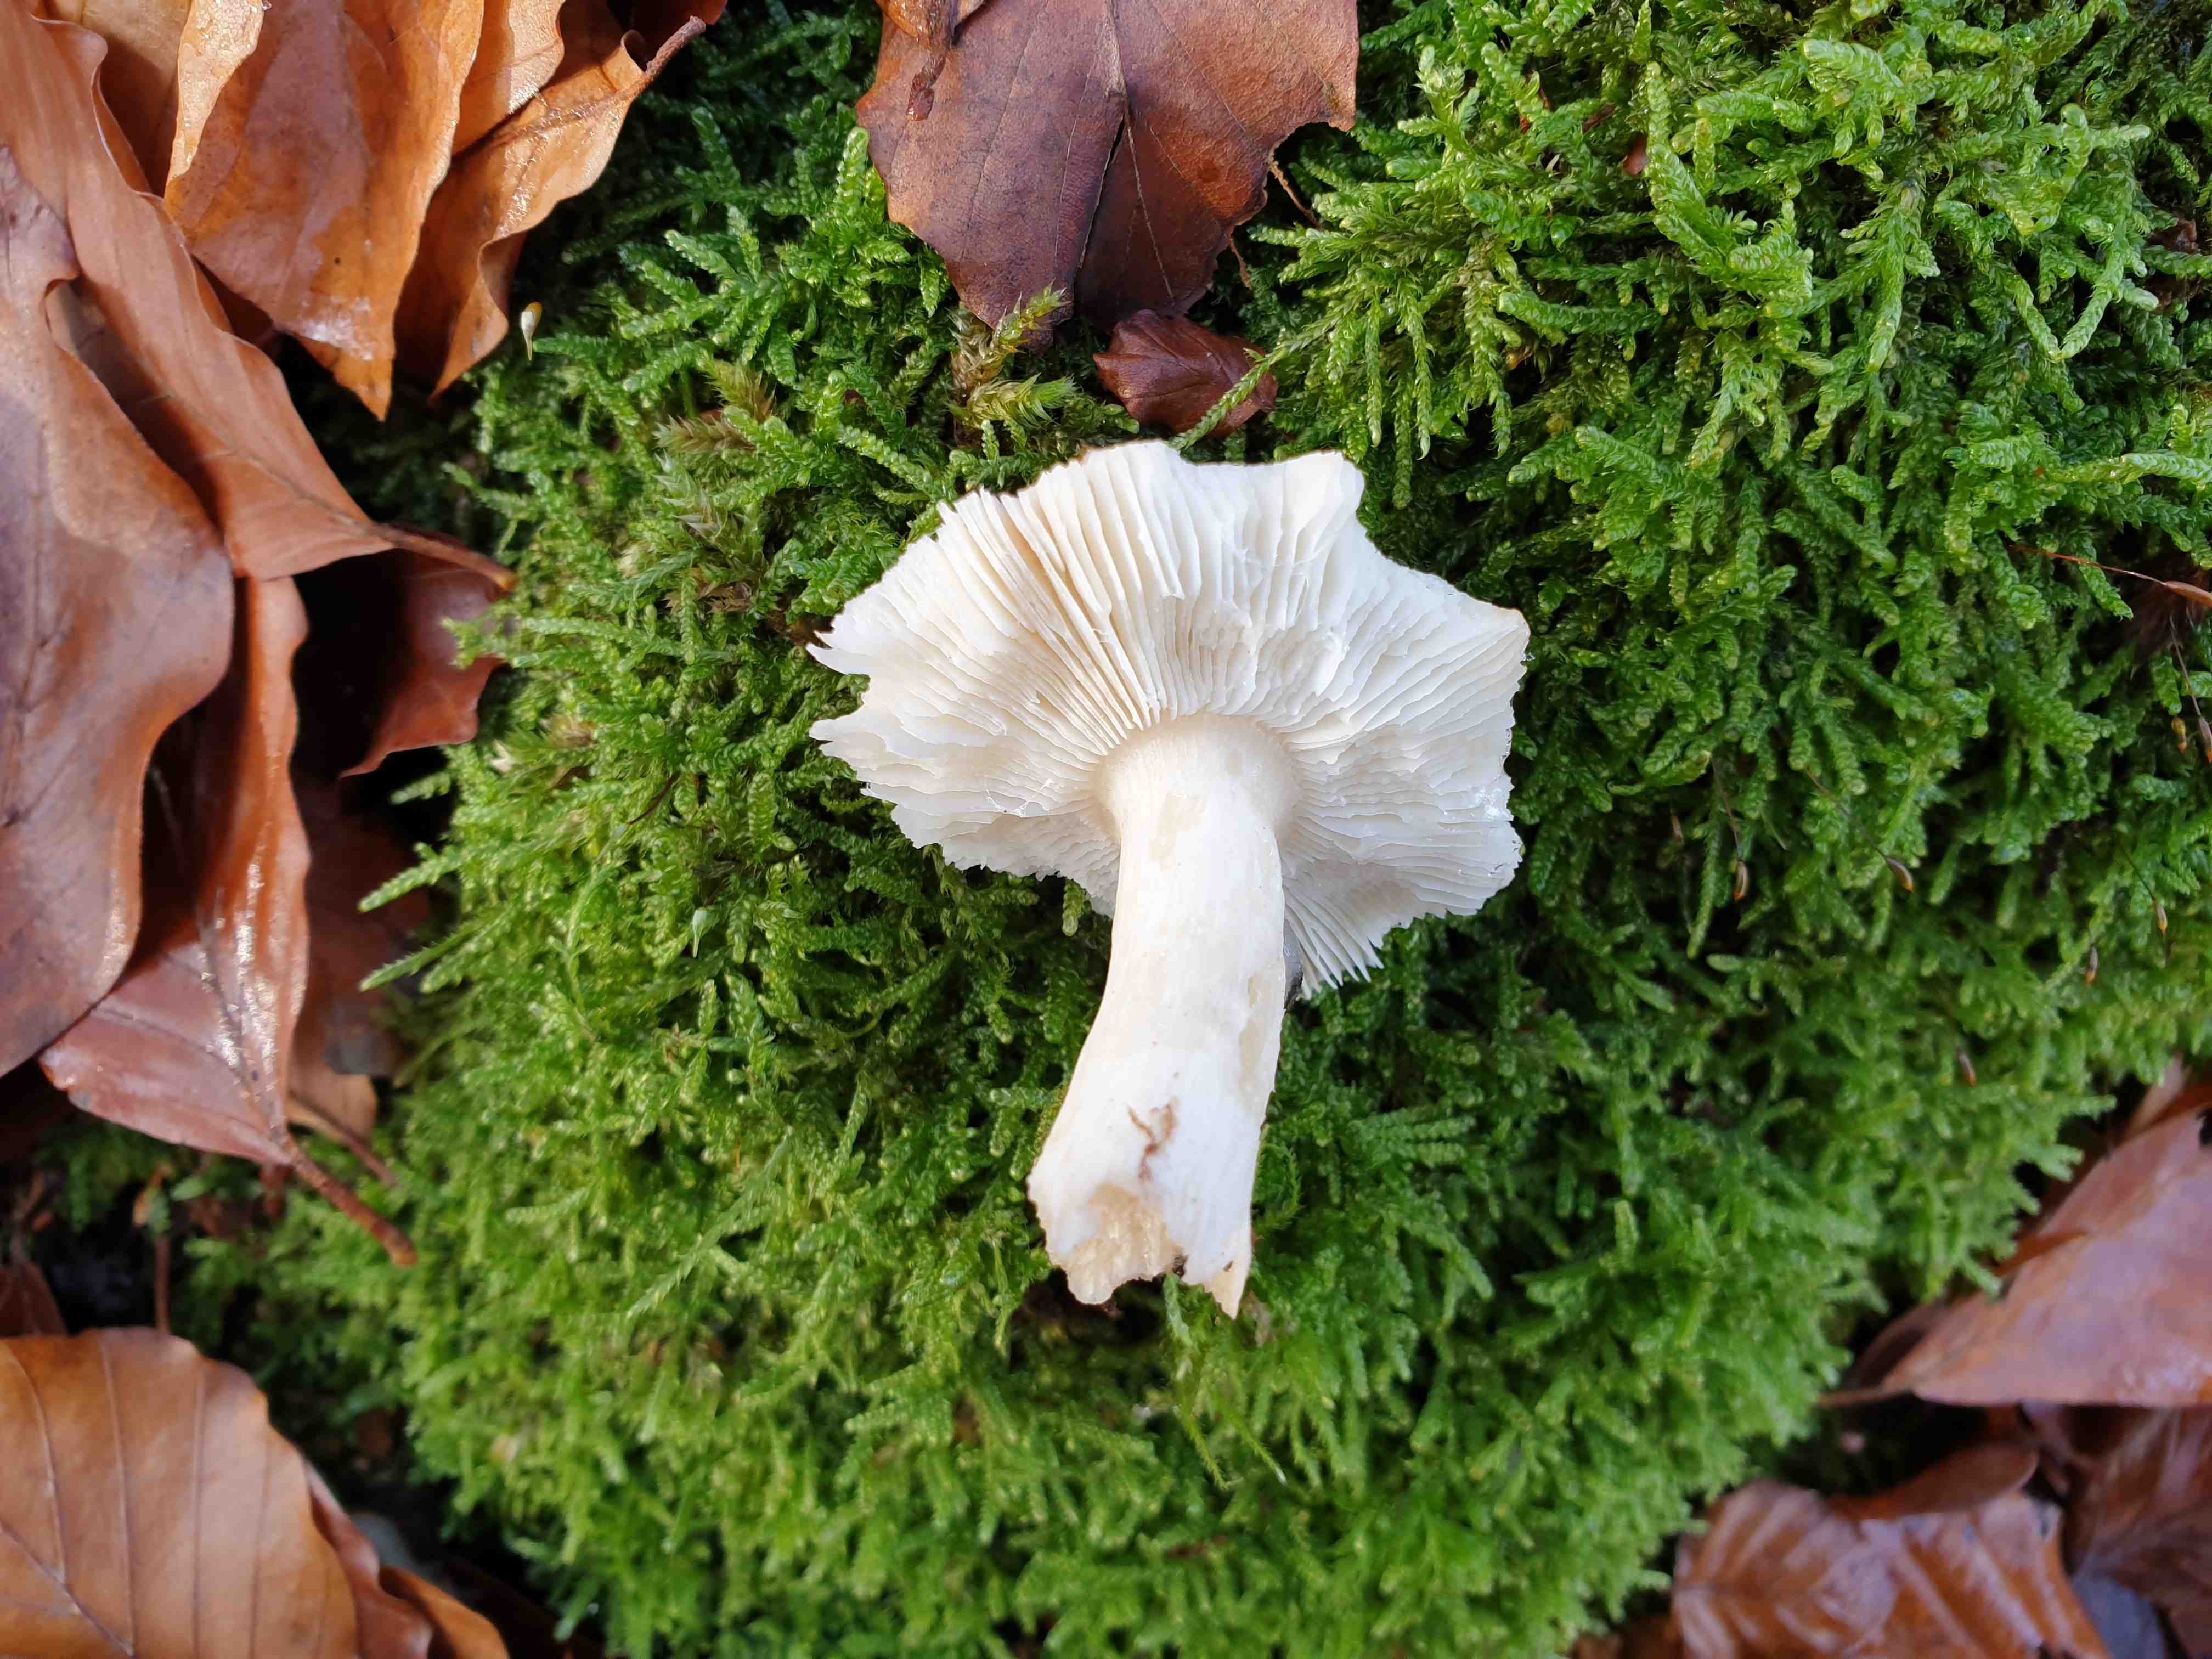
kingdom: Fungi
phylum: Basidiomycota
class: Agaricomycetes
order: Russulales
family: Russulaceae
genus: Russula
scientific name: Russula nobilis
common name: lille gift-skørhat
